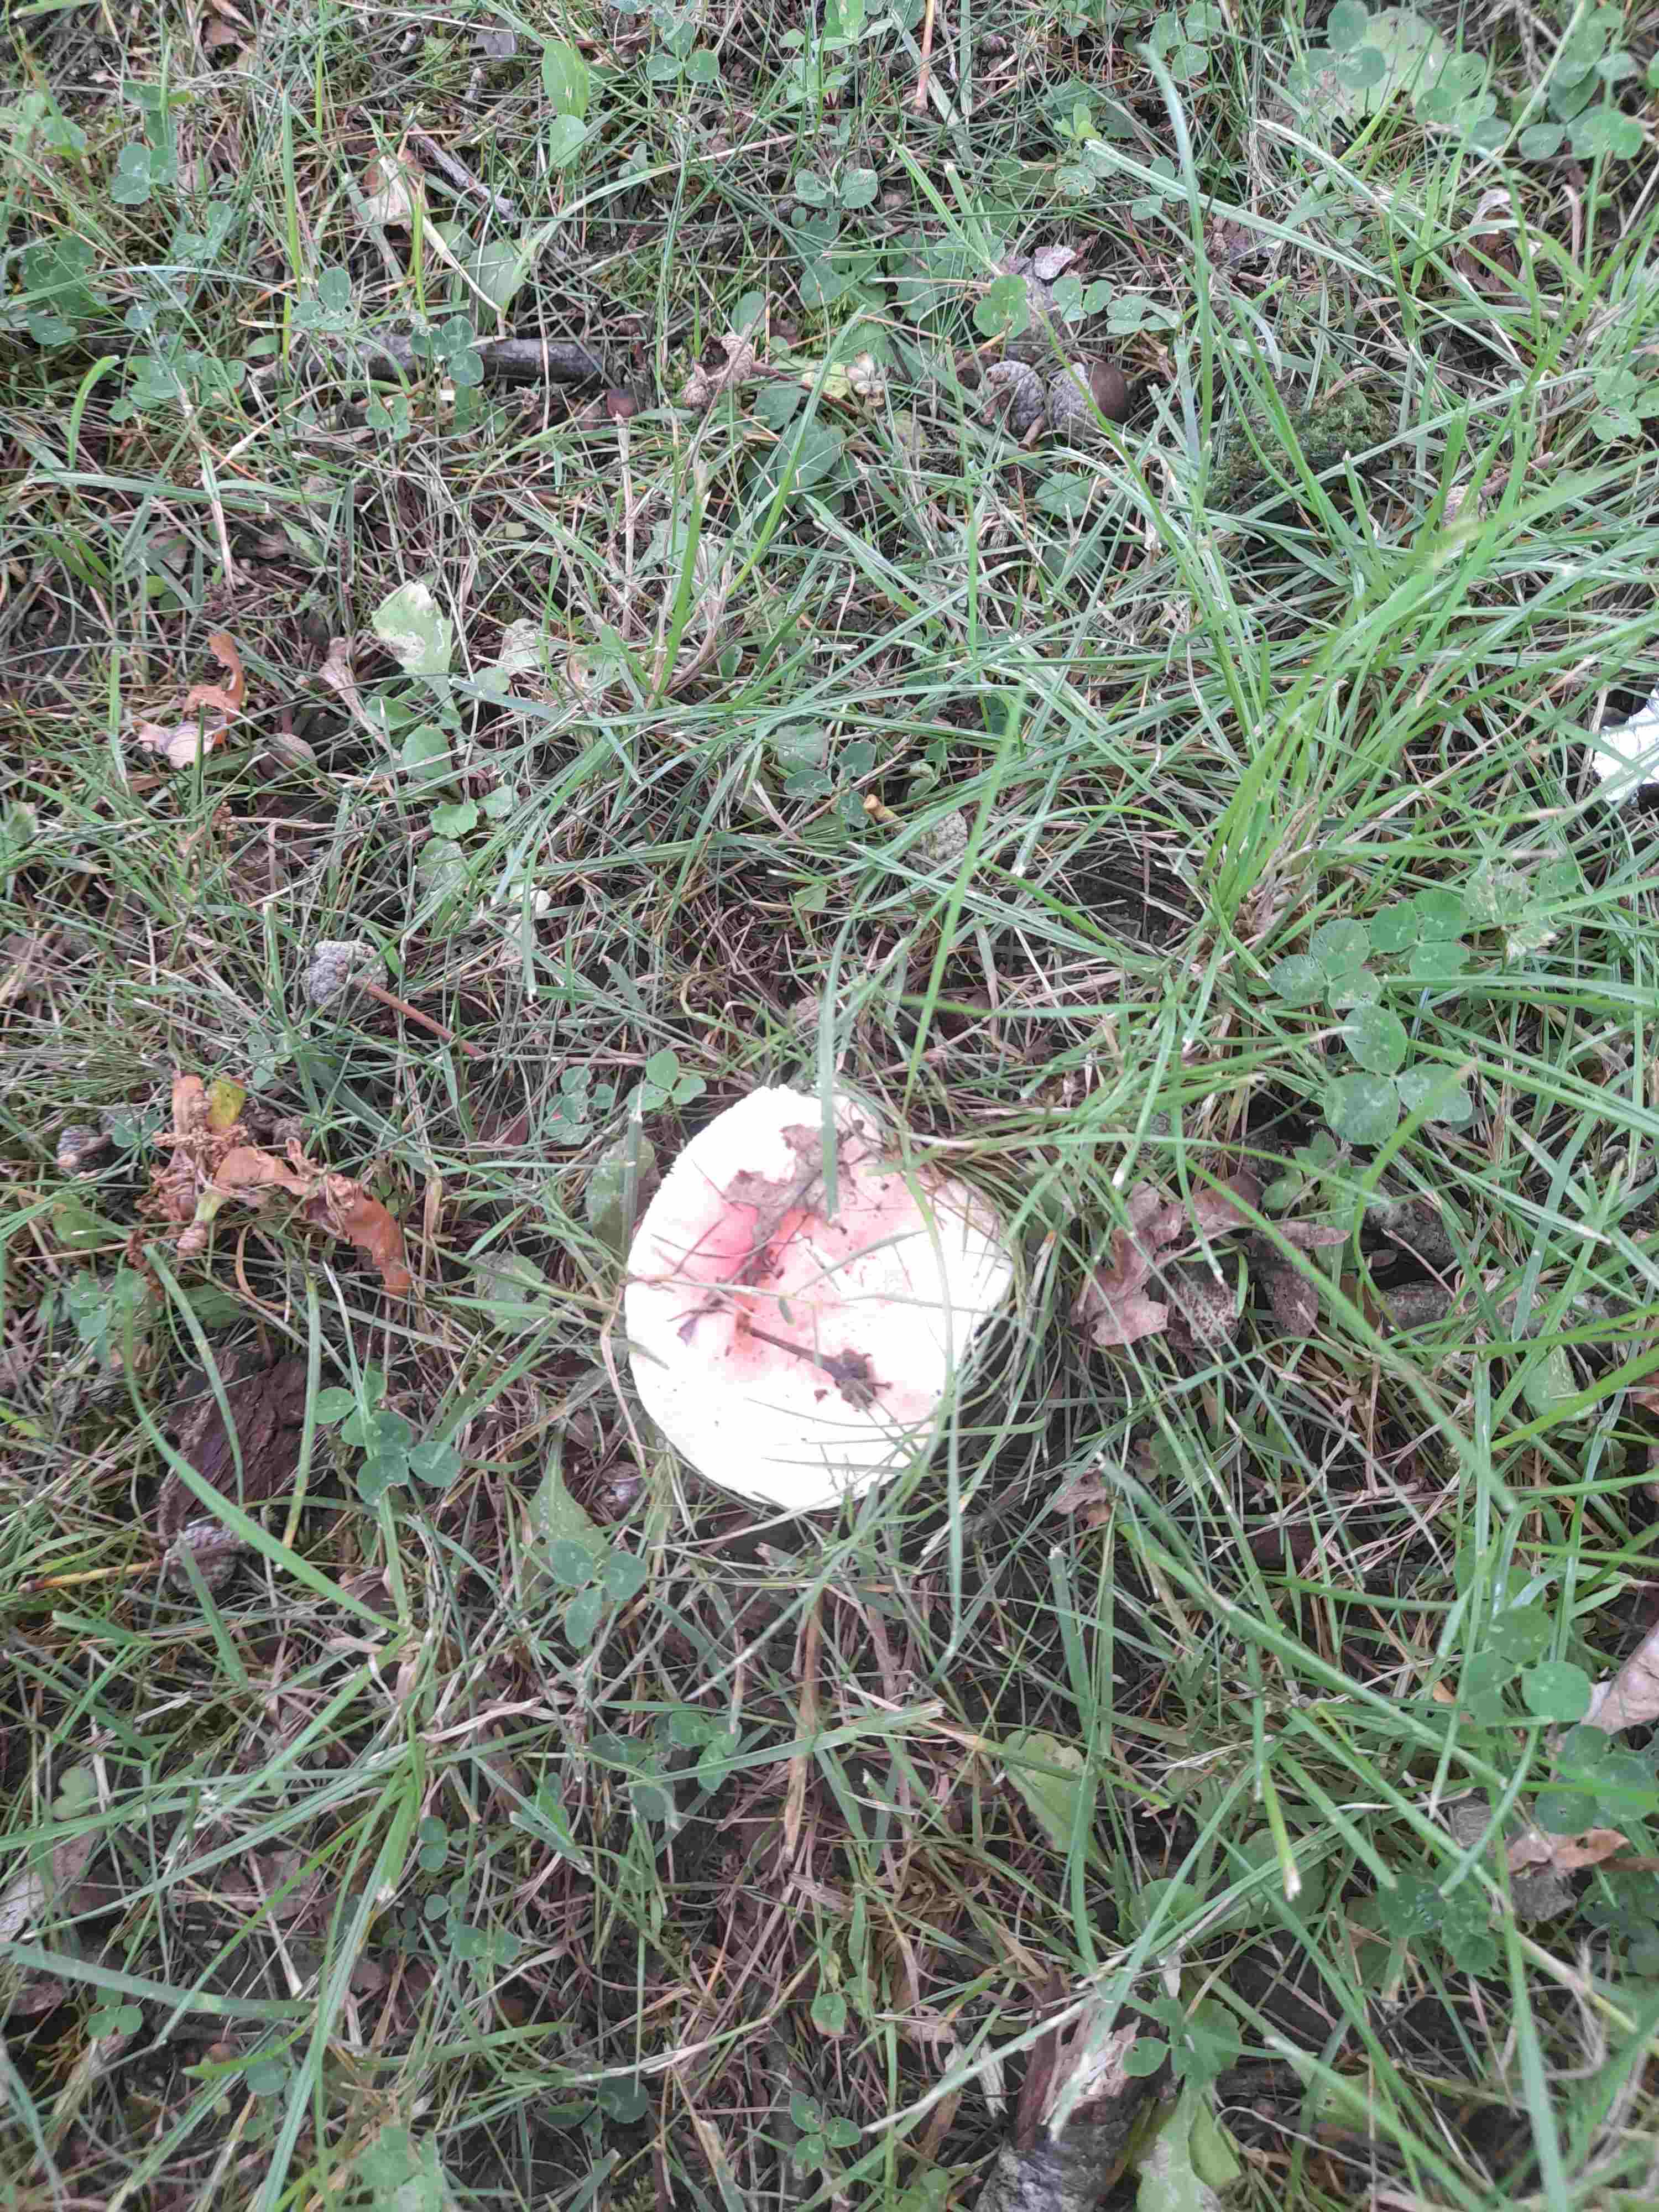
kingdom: Fungi
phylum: Basidiomycota
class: Agaricomycetes
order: Russulales
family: Russulaceae
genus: Russula
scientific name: Russula depallens
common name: falmende skørhat
